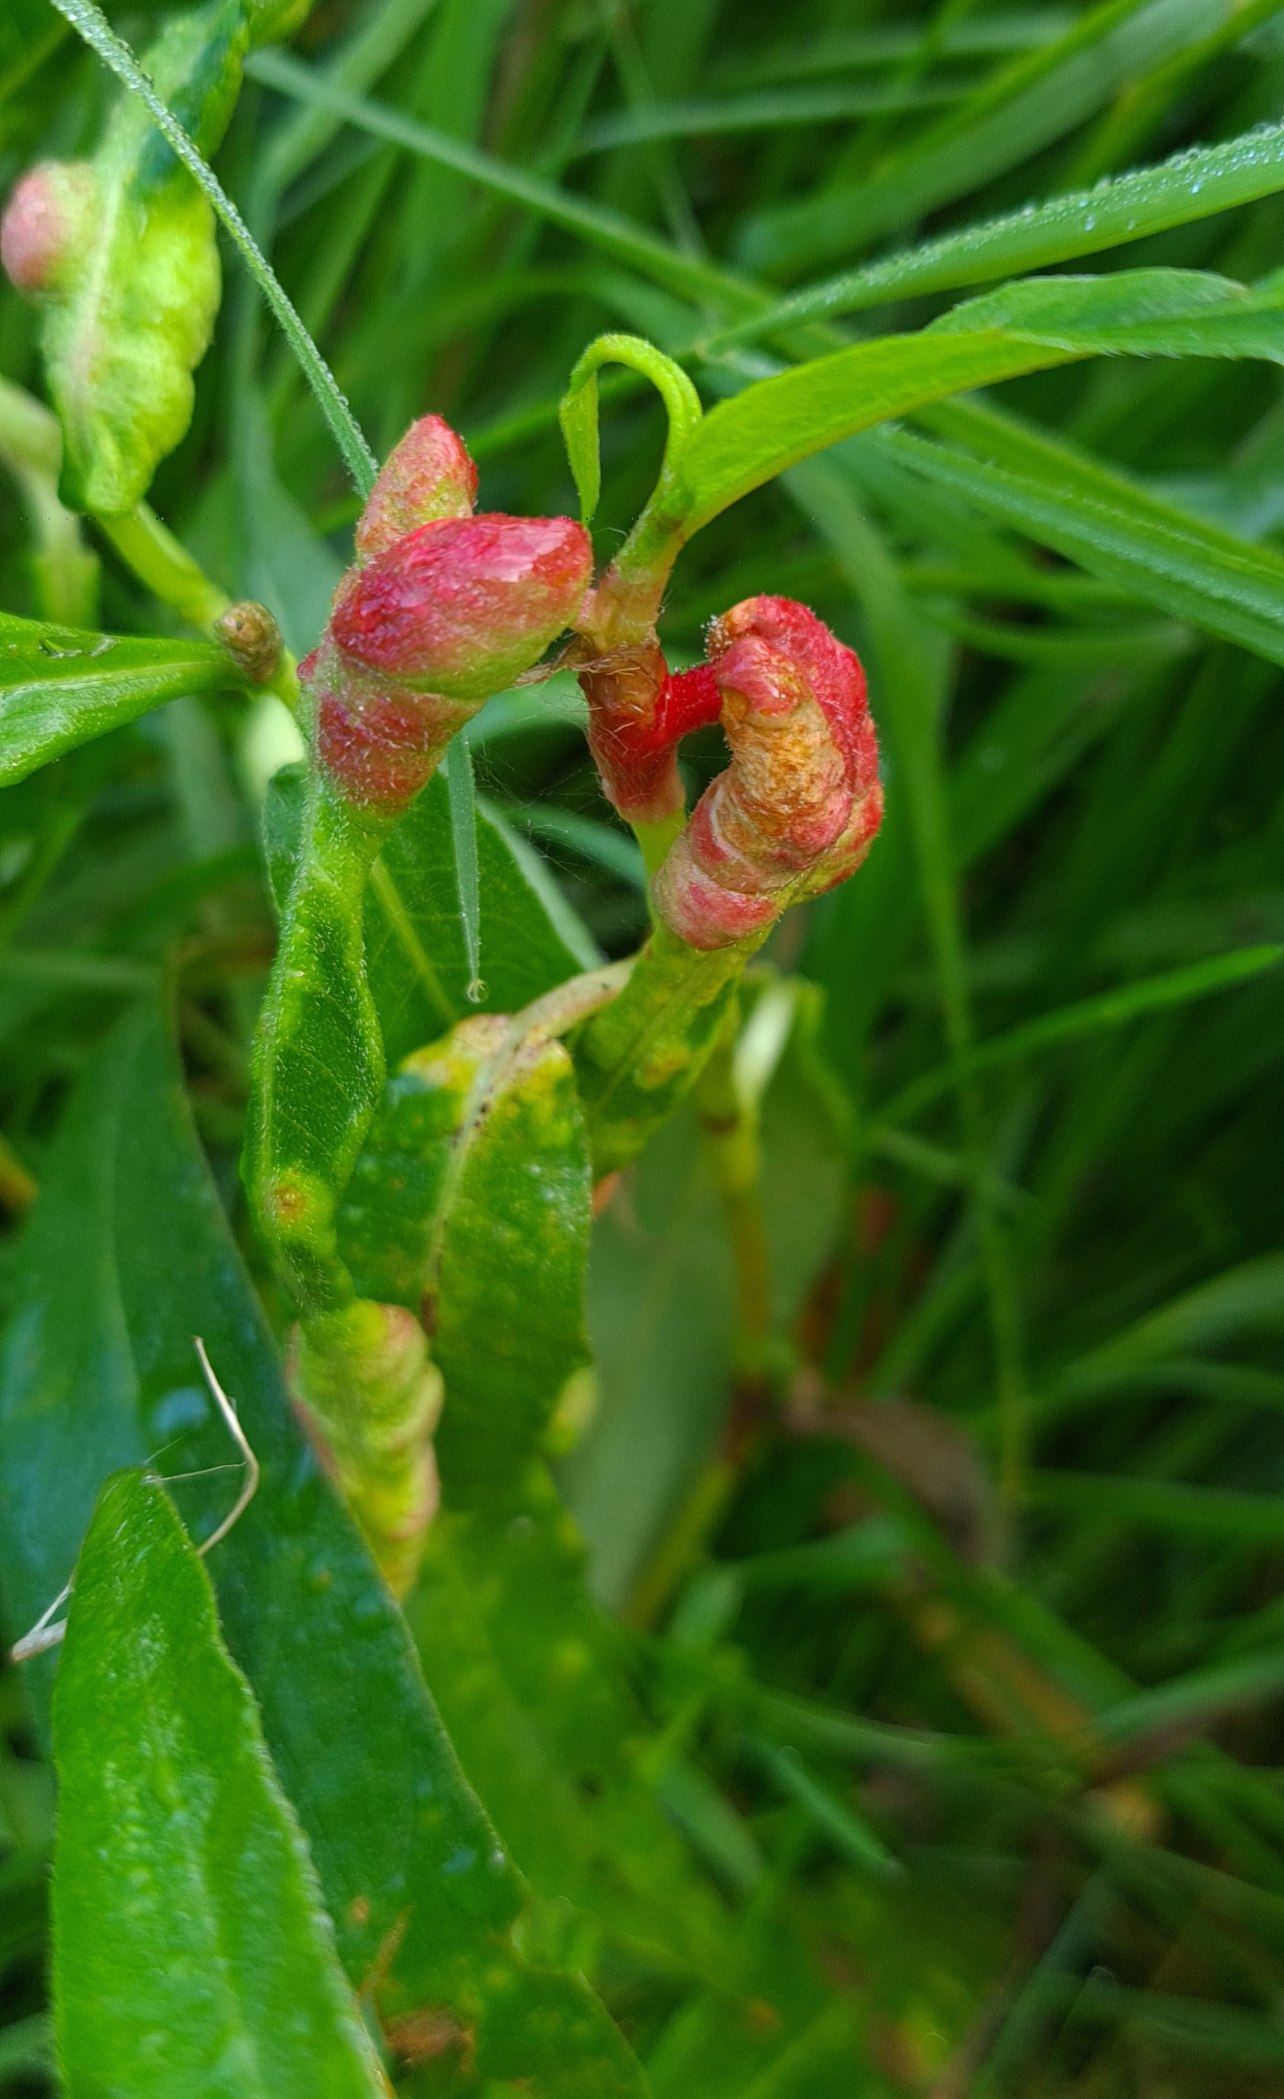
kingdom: Animalia
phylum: Arthropoda
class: Insecta
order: Diptera
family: Cecidomyiidae
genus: Wachtliella
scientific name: Wachtliella persicariae
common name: Pileurtgalmyg
